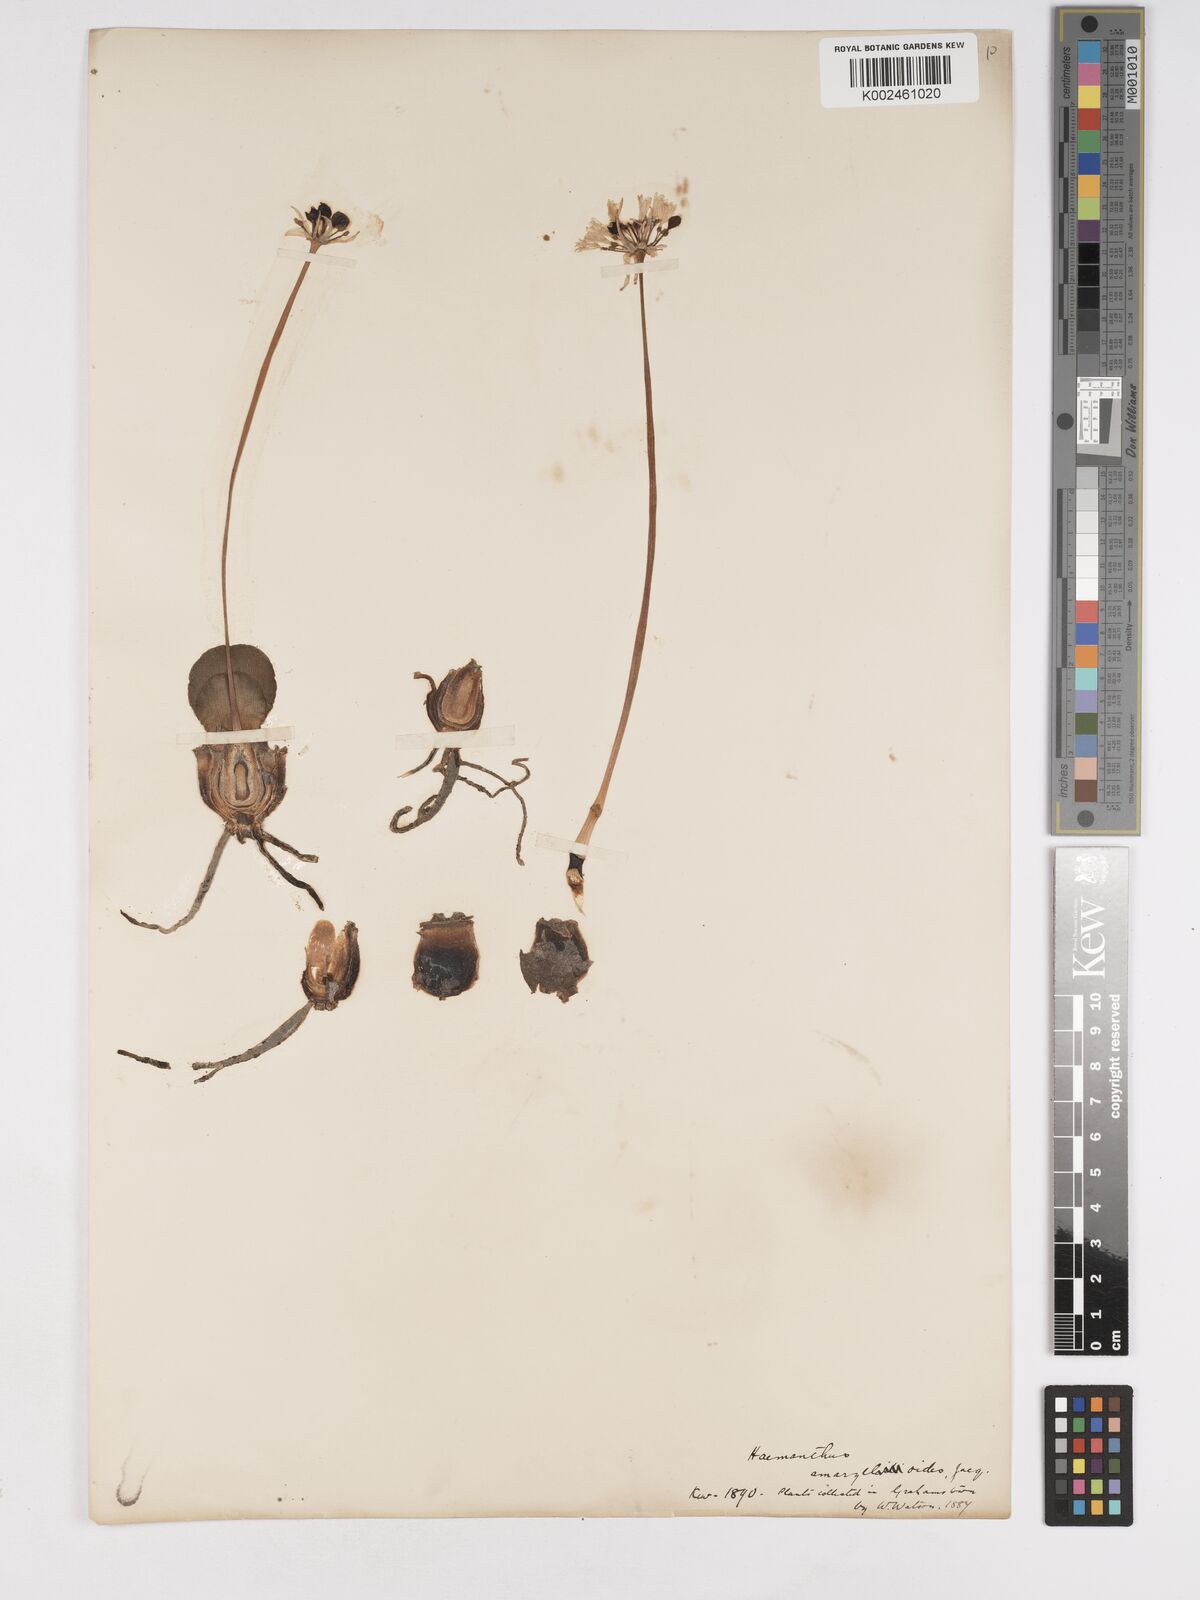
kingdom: Plantae
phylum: Tracheophyta
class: Liliopsida
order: Asparagales
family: Amaryllidaceae
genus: Haemanthus
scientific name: Haemanthus amarylloides
